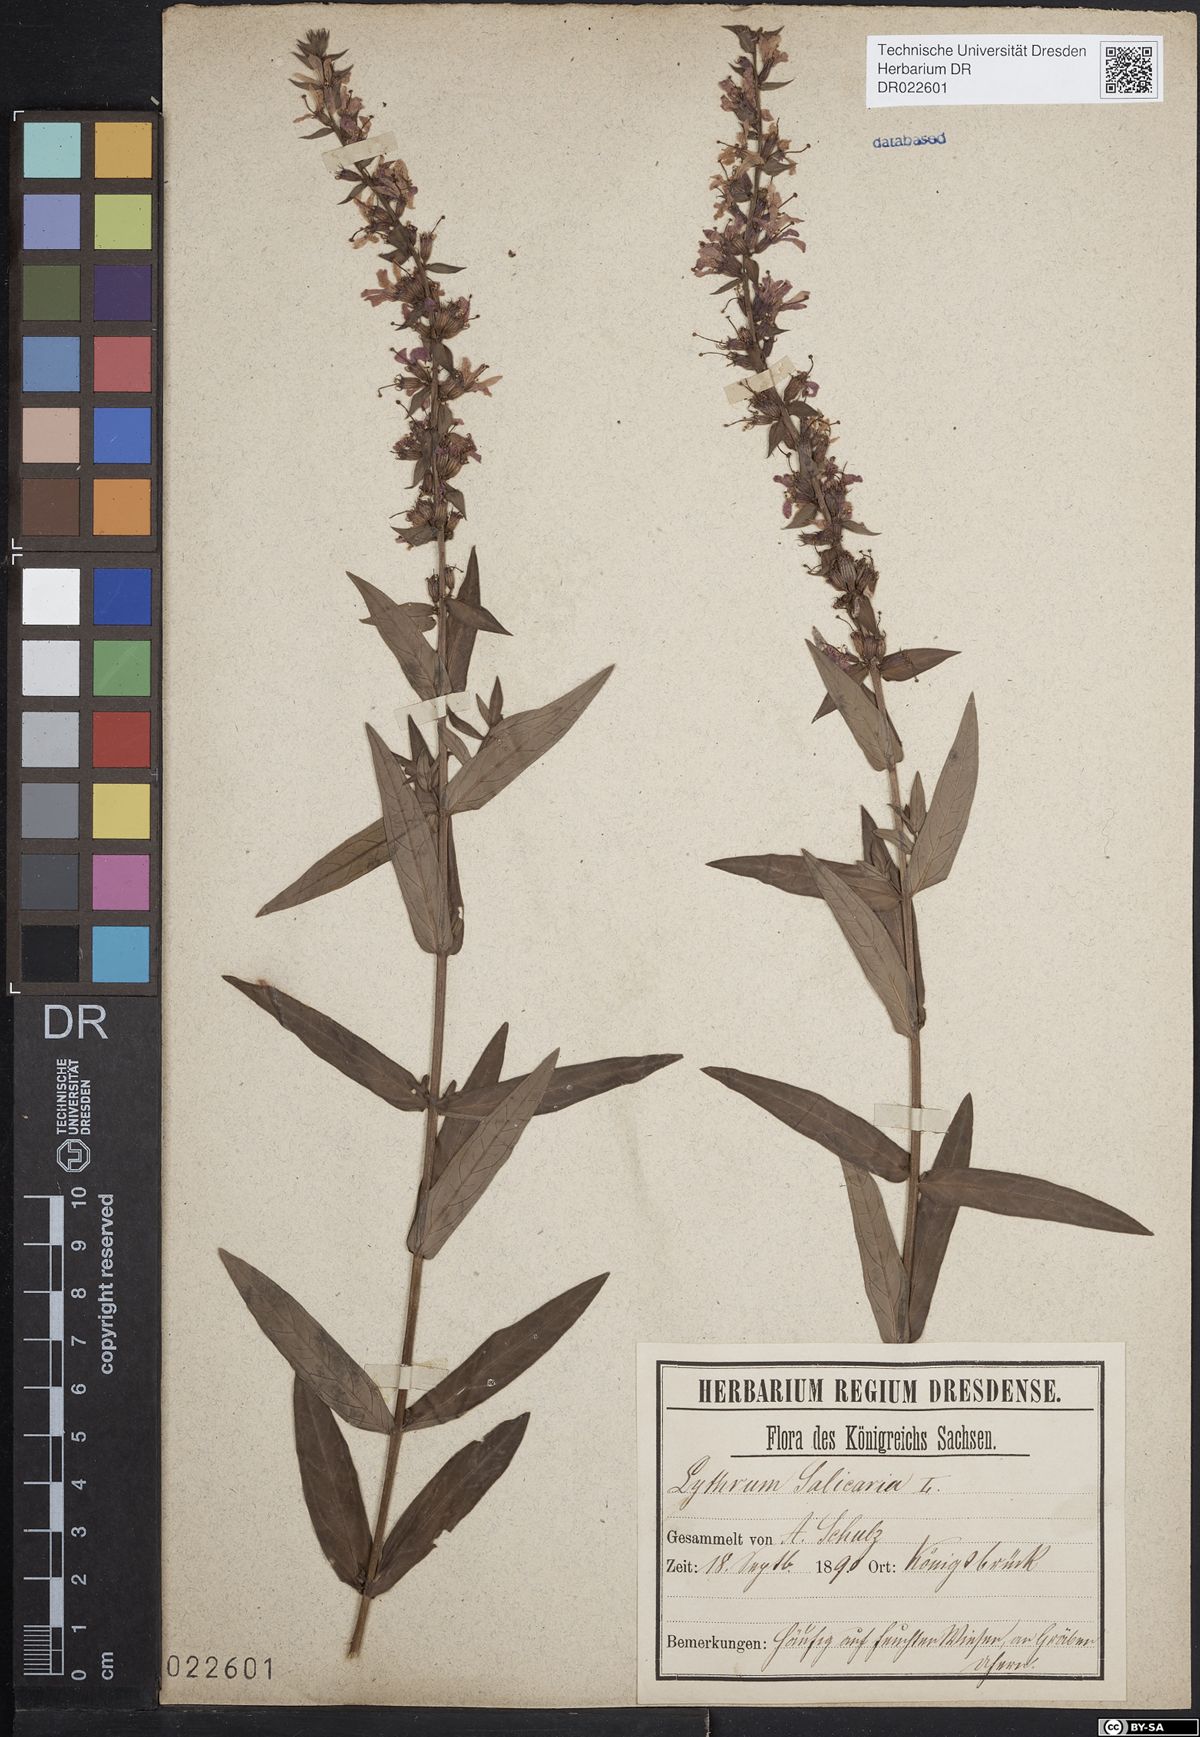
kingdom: Plantae
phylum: Tracheophyta
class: Magnoliopsida
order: Myrtales
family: Lythraceae
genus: Lythrum
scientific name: Lythrum salicaria
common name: Purple loosestrife
